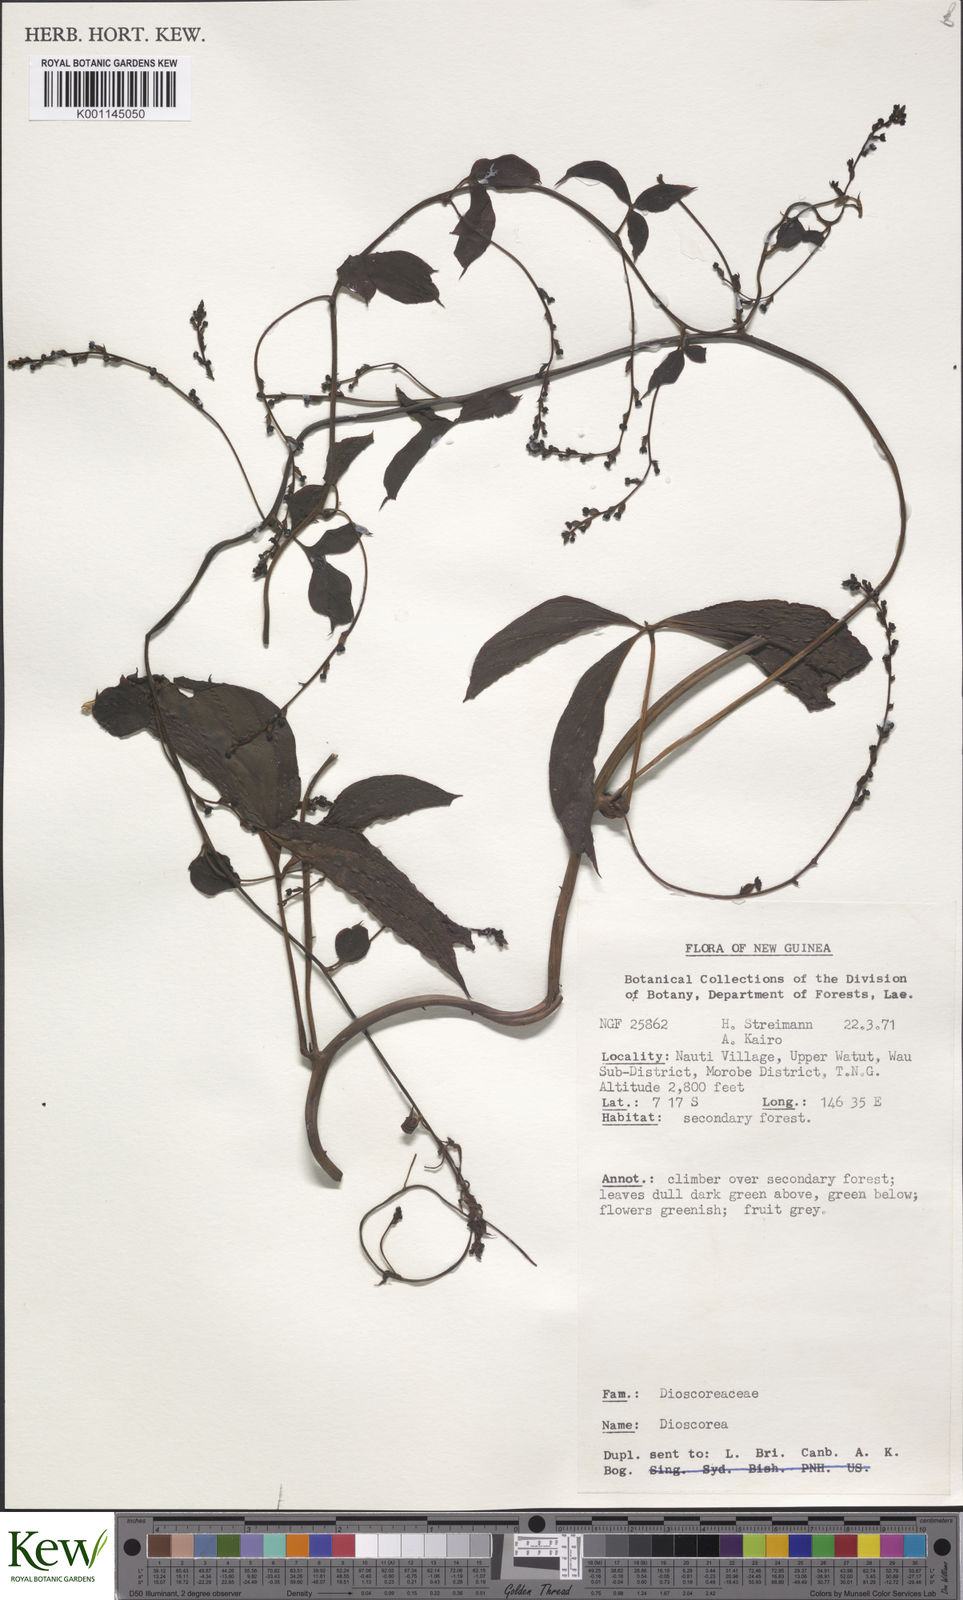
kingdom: Plantae
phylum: Tracheophyta
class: Liliopsida
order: Dioscoreales
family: Dioscoreaceae
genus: Dioscorea
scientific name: Dioscorea
